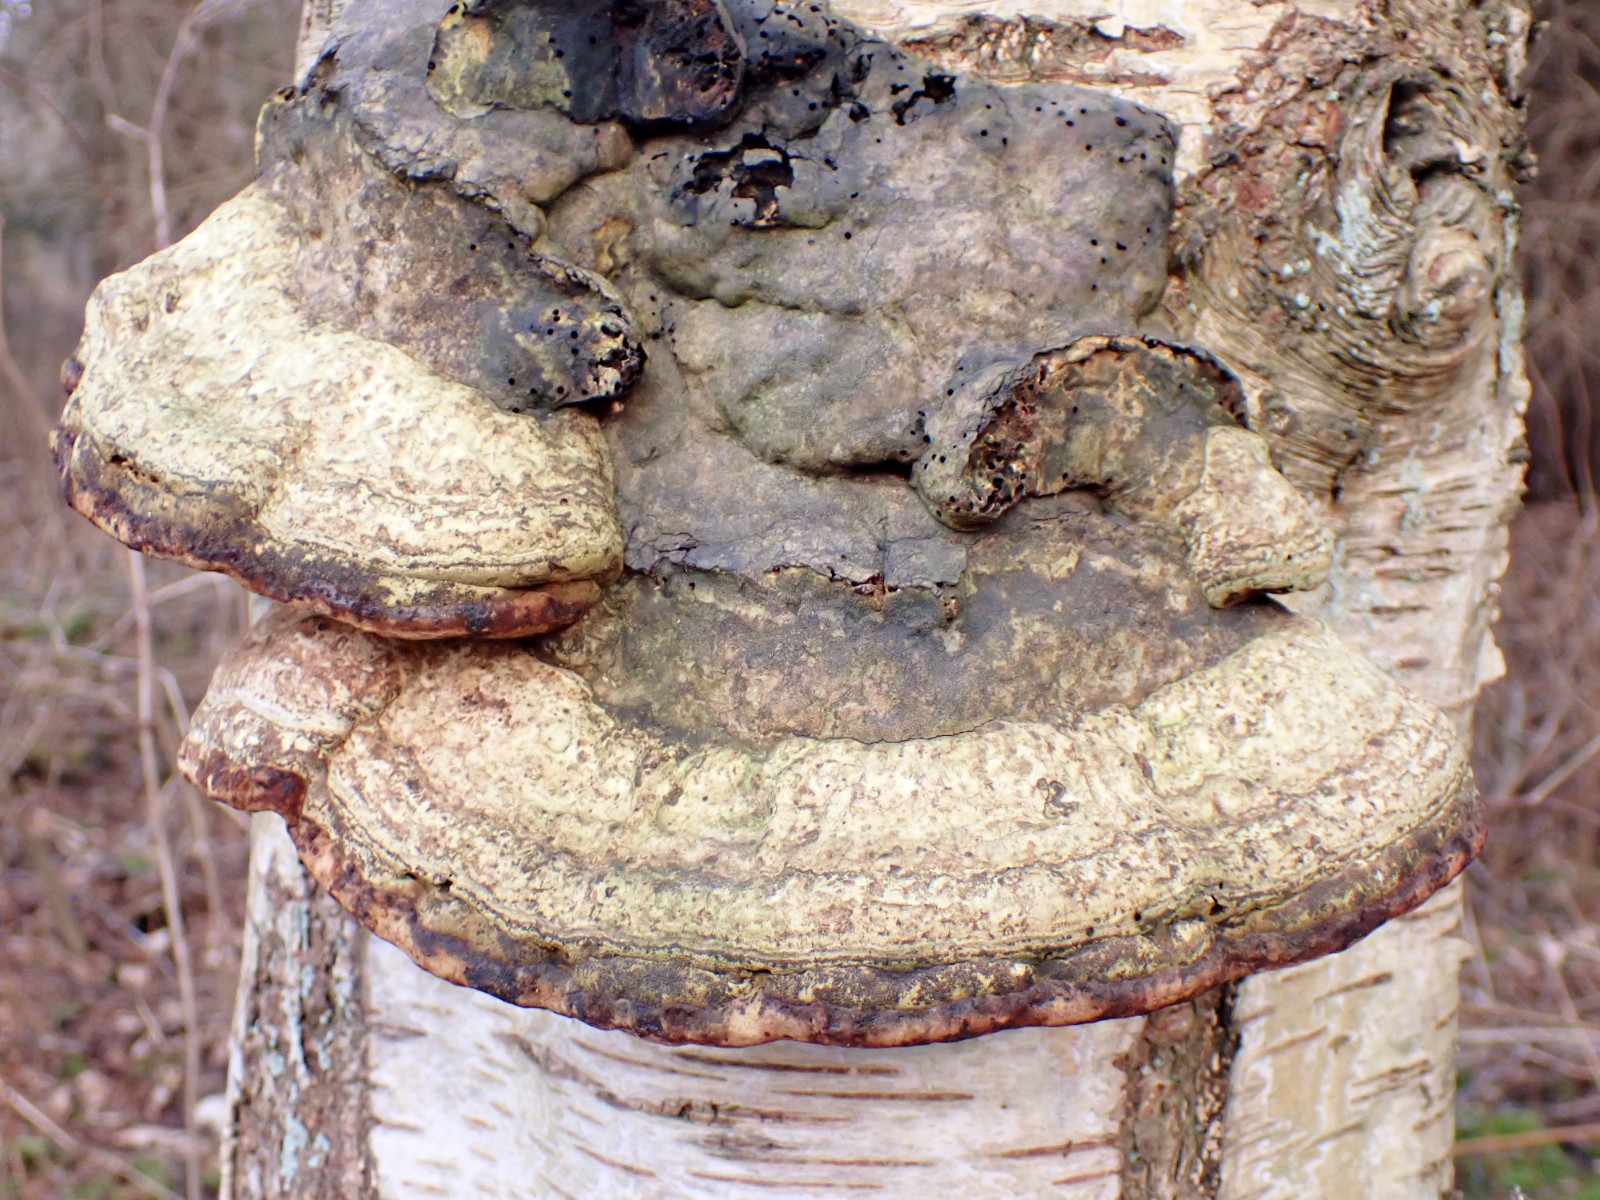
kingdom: Fungi
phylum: Basidiomycota
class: Agaricomycetes
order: Polyporales
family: Polyporaceae
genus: Fomes
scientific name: Fomes fomentarius
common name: tøndersvamp
